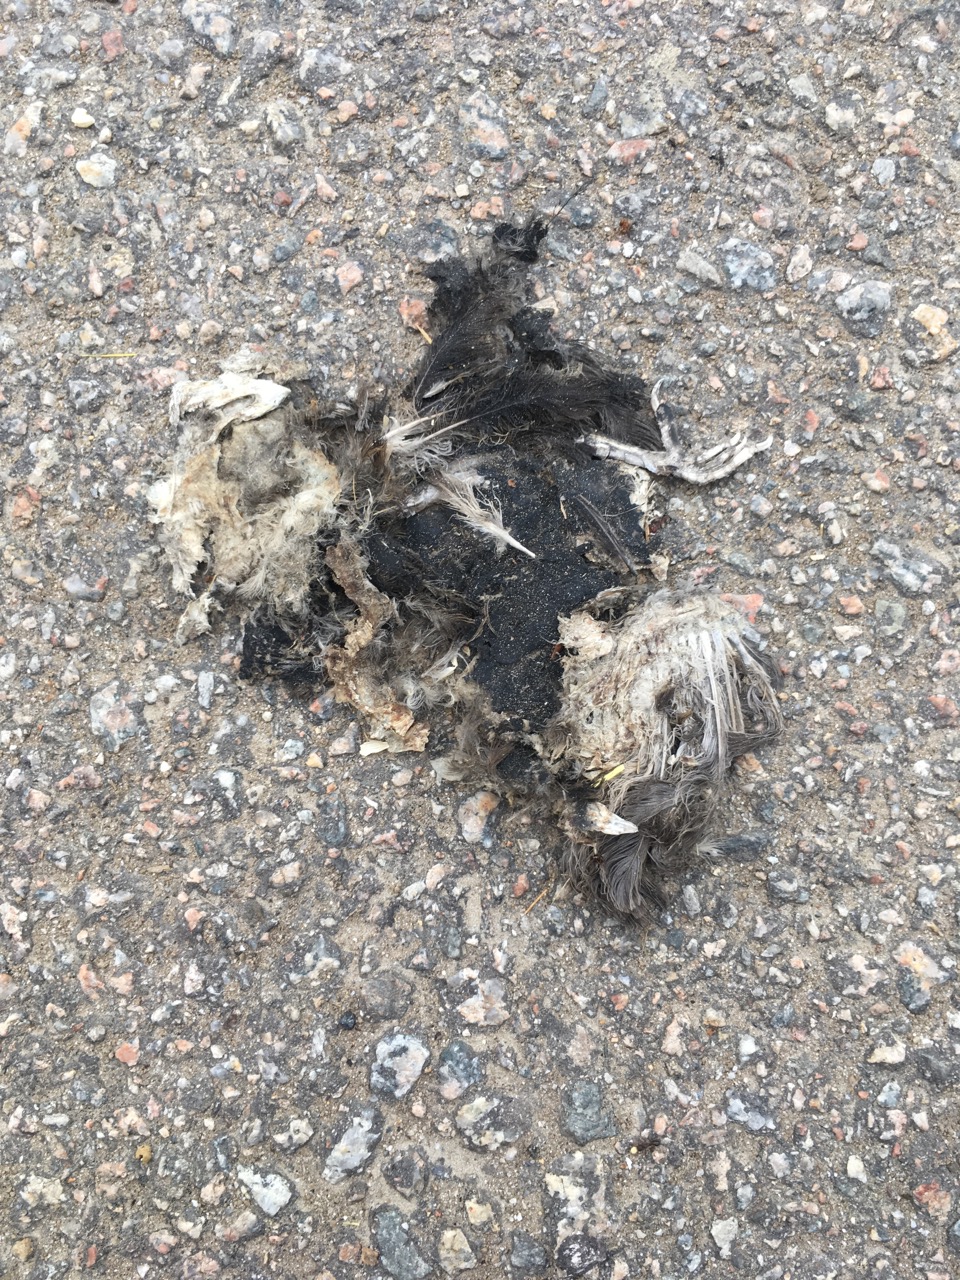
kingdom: Animalia
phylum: Chordata
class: Aves
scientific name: Aves
